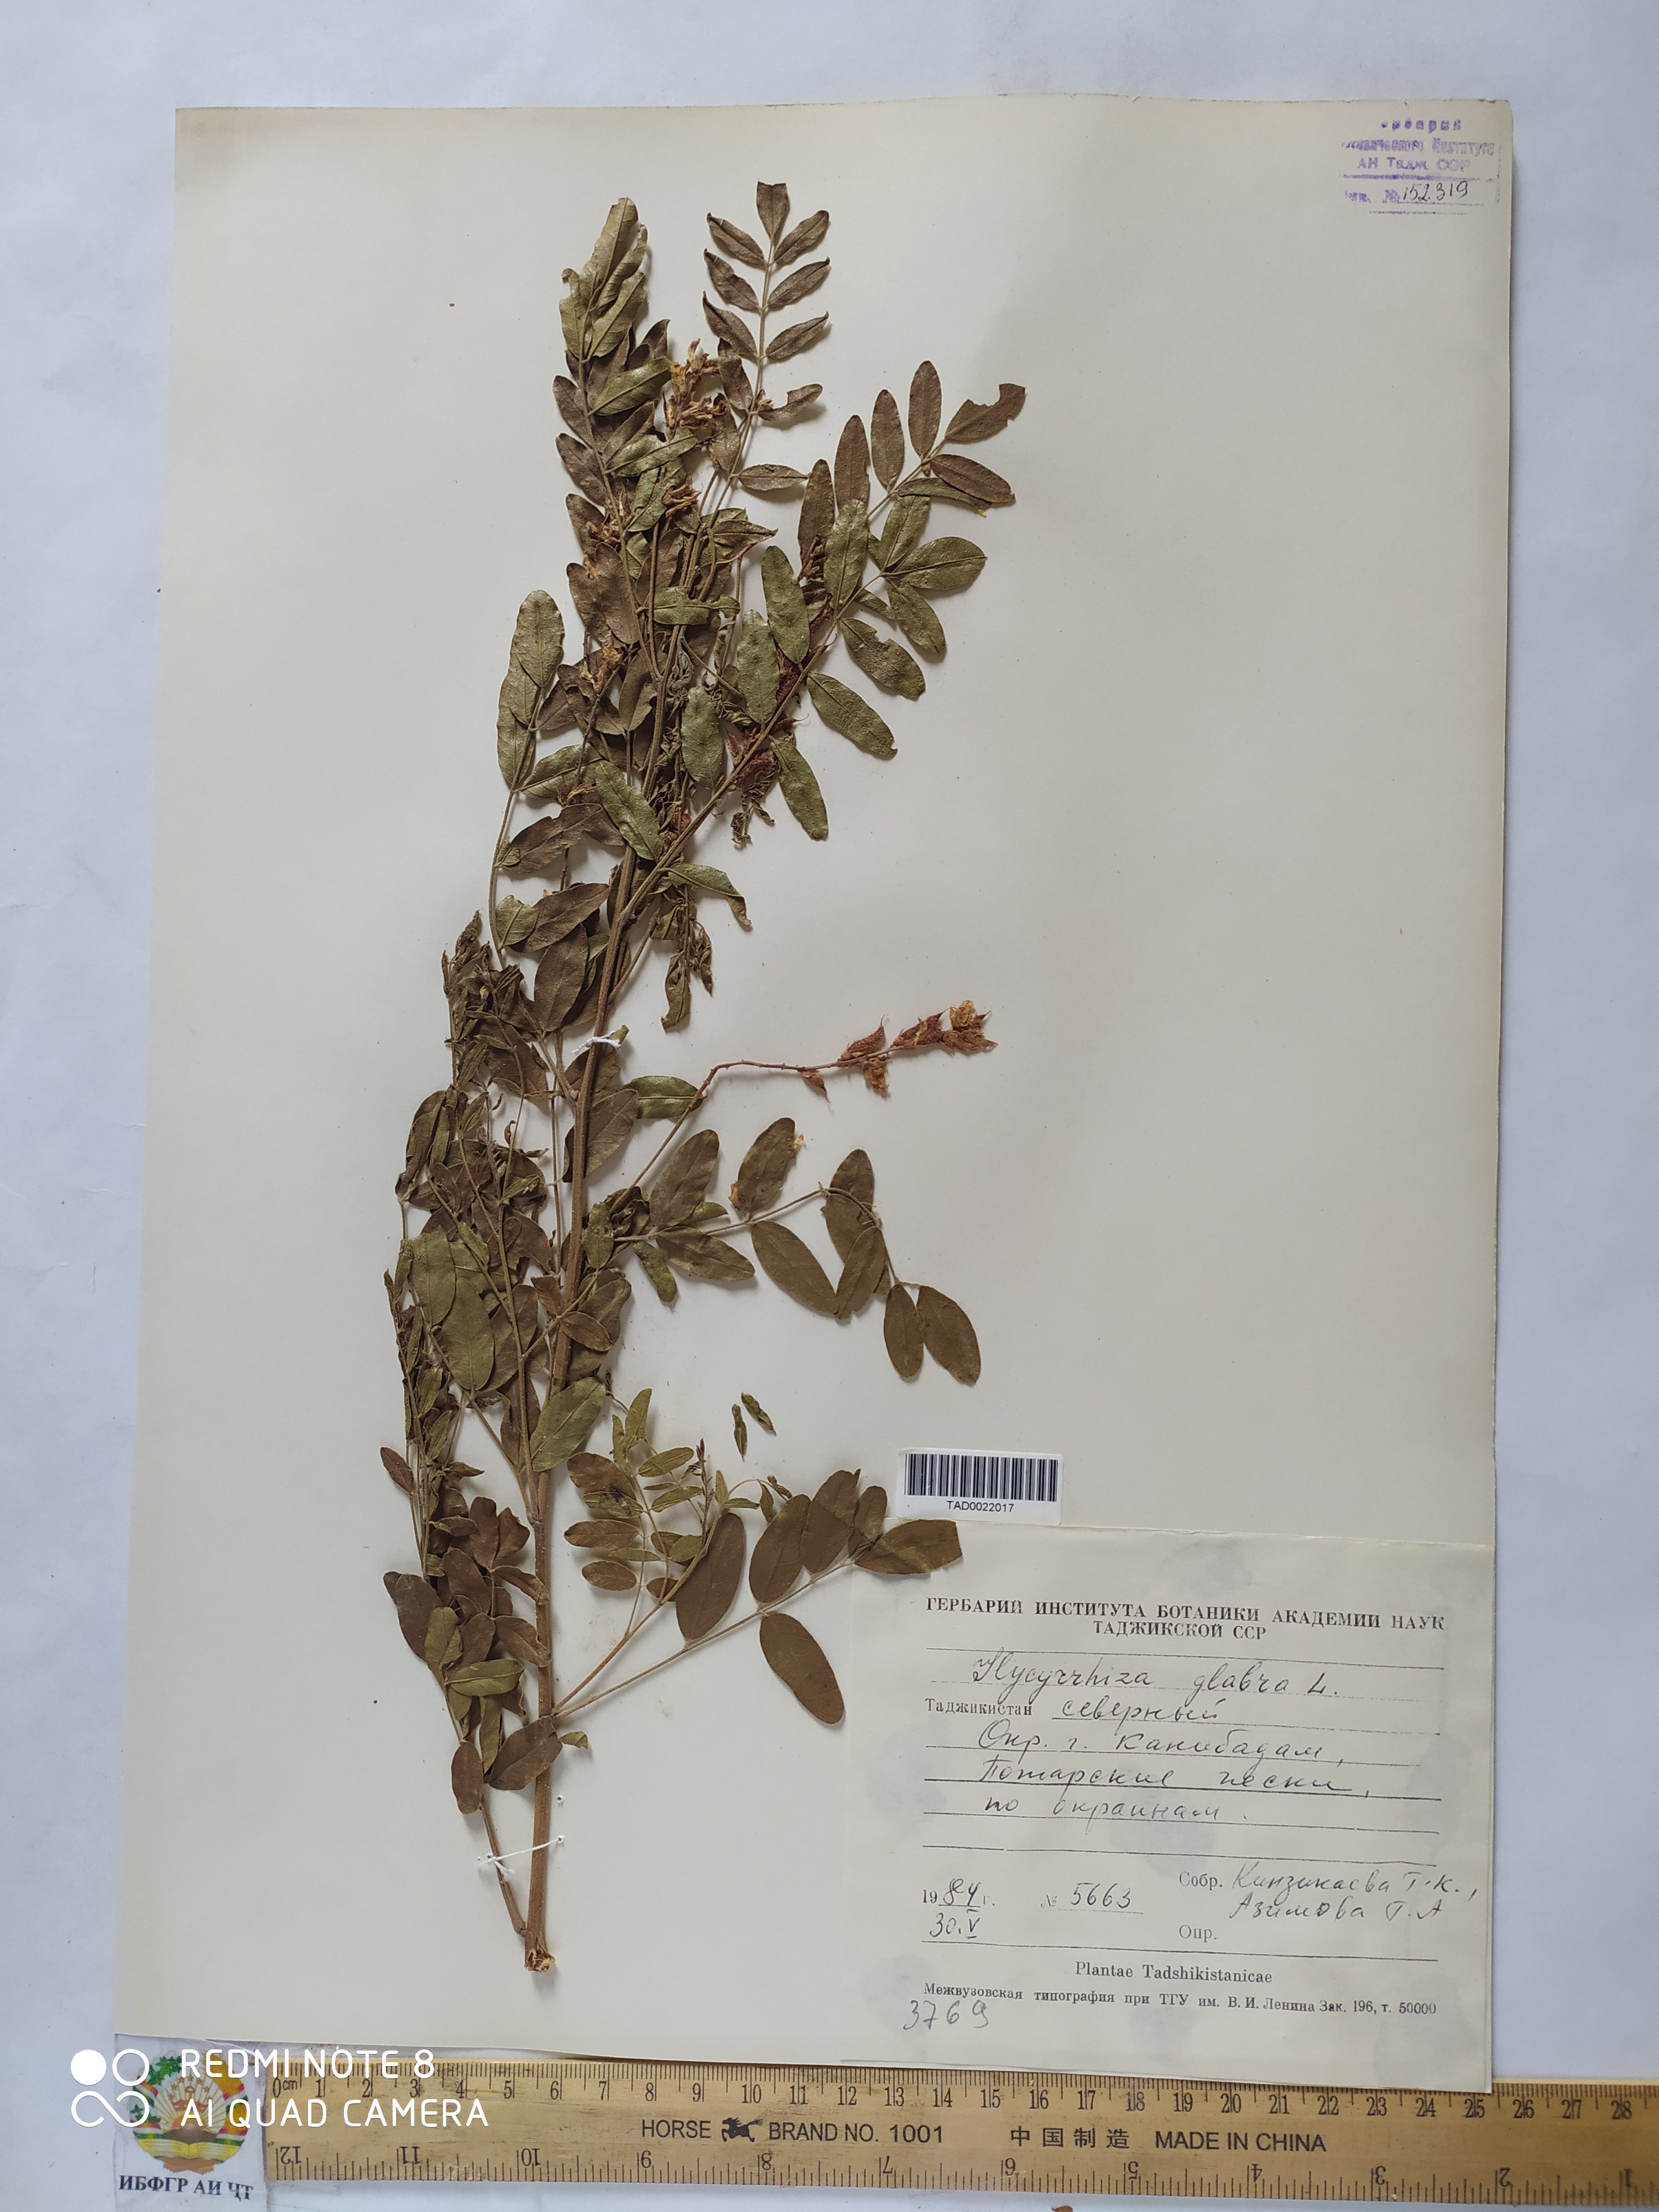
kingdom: Plantae
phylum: Tracheophyta
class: Magnoliopsida
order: Fabales
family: Fabaceae
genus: Glycyrrhiza
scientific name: Glycyrrhiza glabra
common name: Liquorice
